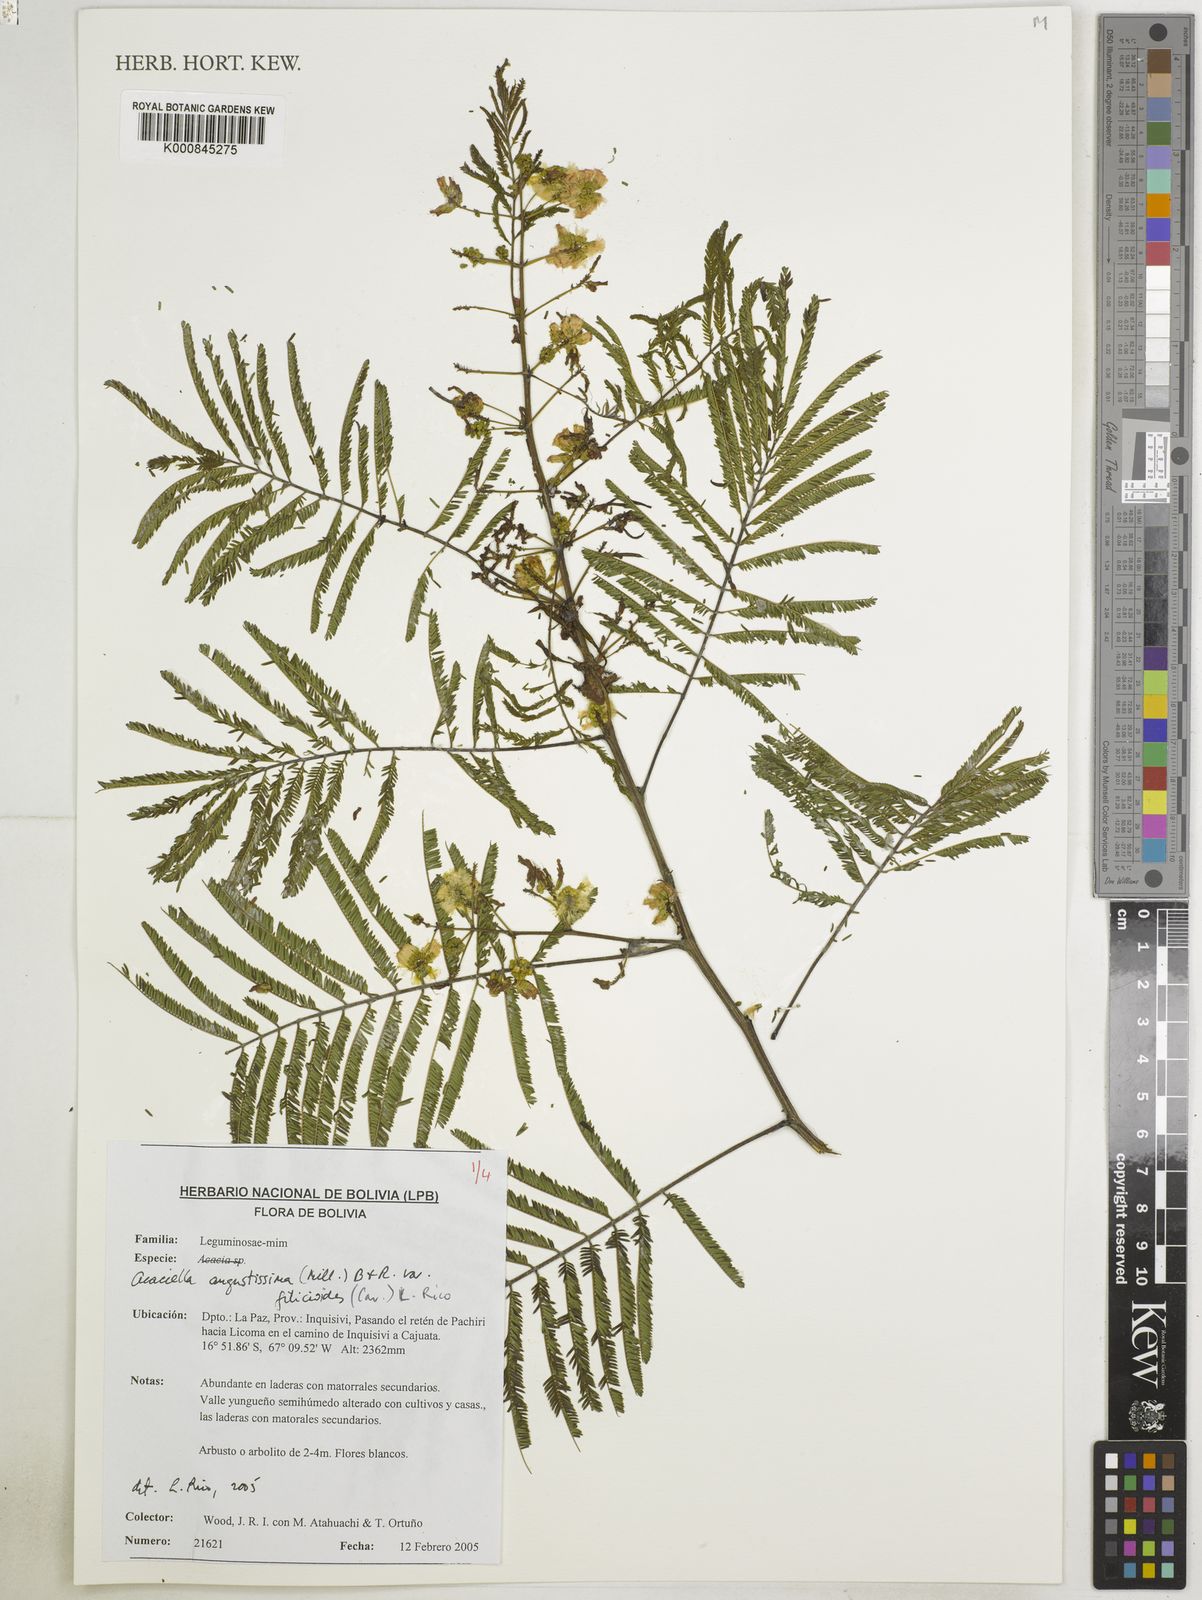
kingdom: Plantae
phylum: Tracheophyta
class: Magnoliopsida
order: Fabales
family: Fabaceae
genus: Acaciella
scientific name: Acaciella angustissima
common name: Prairie acacia
